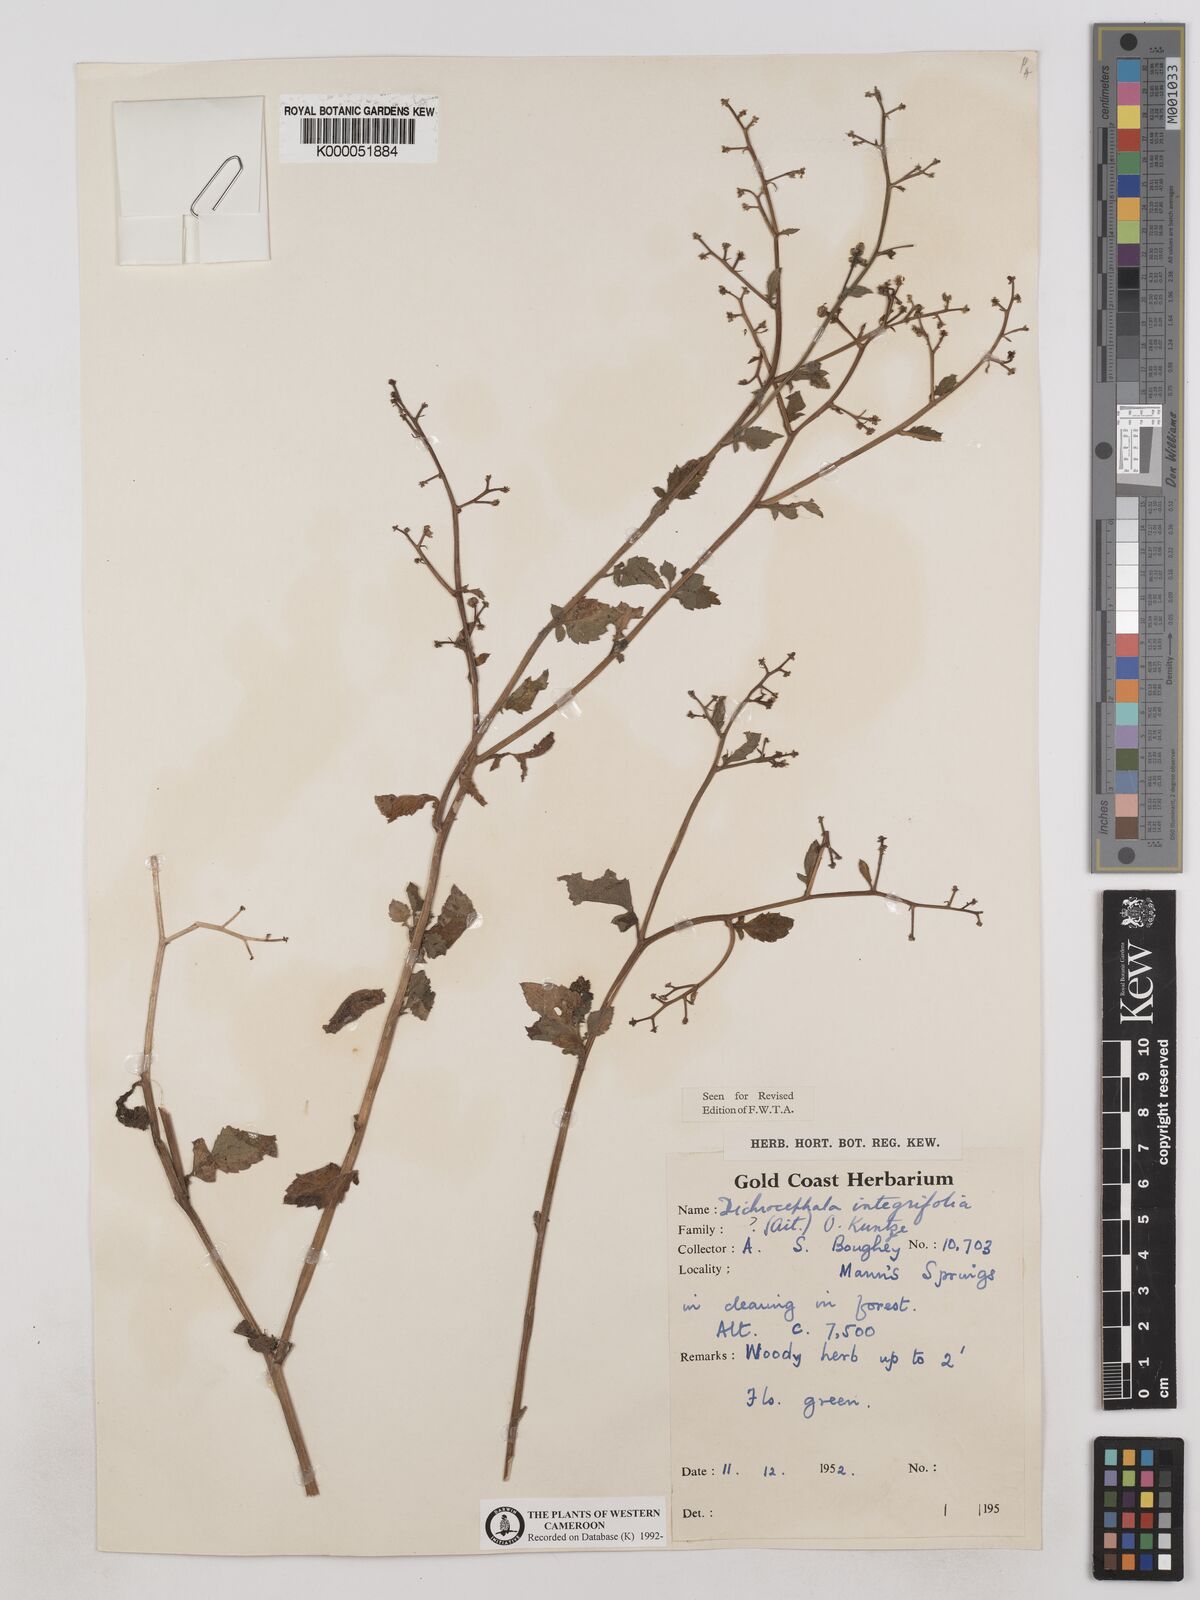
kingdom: Plantae
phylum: Tracheophyta
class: Magnoliopsida
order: Asterales
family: Asteraceae
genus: Dichrocephala
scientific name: Dichrocephala integrifolia
